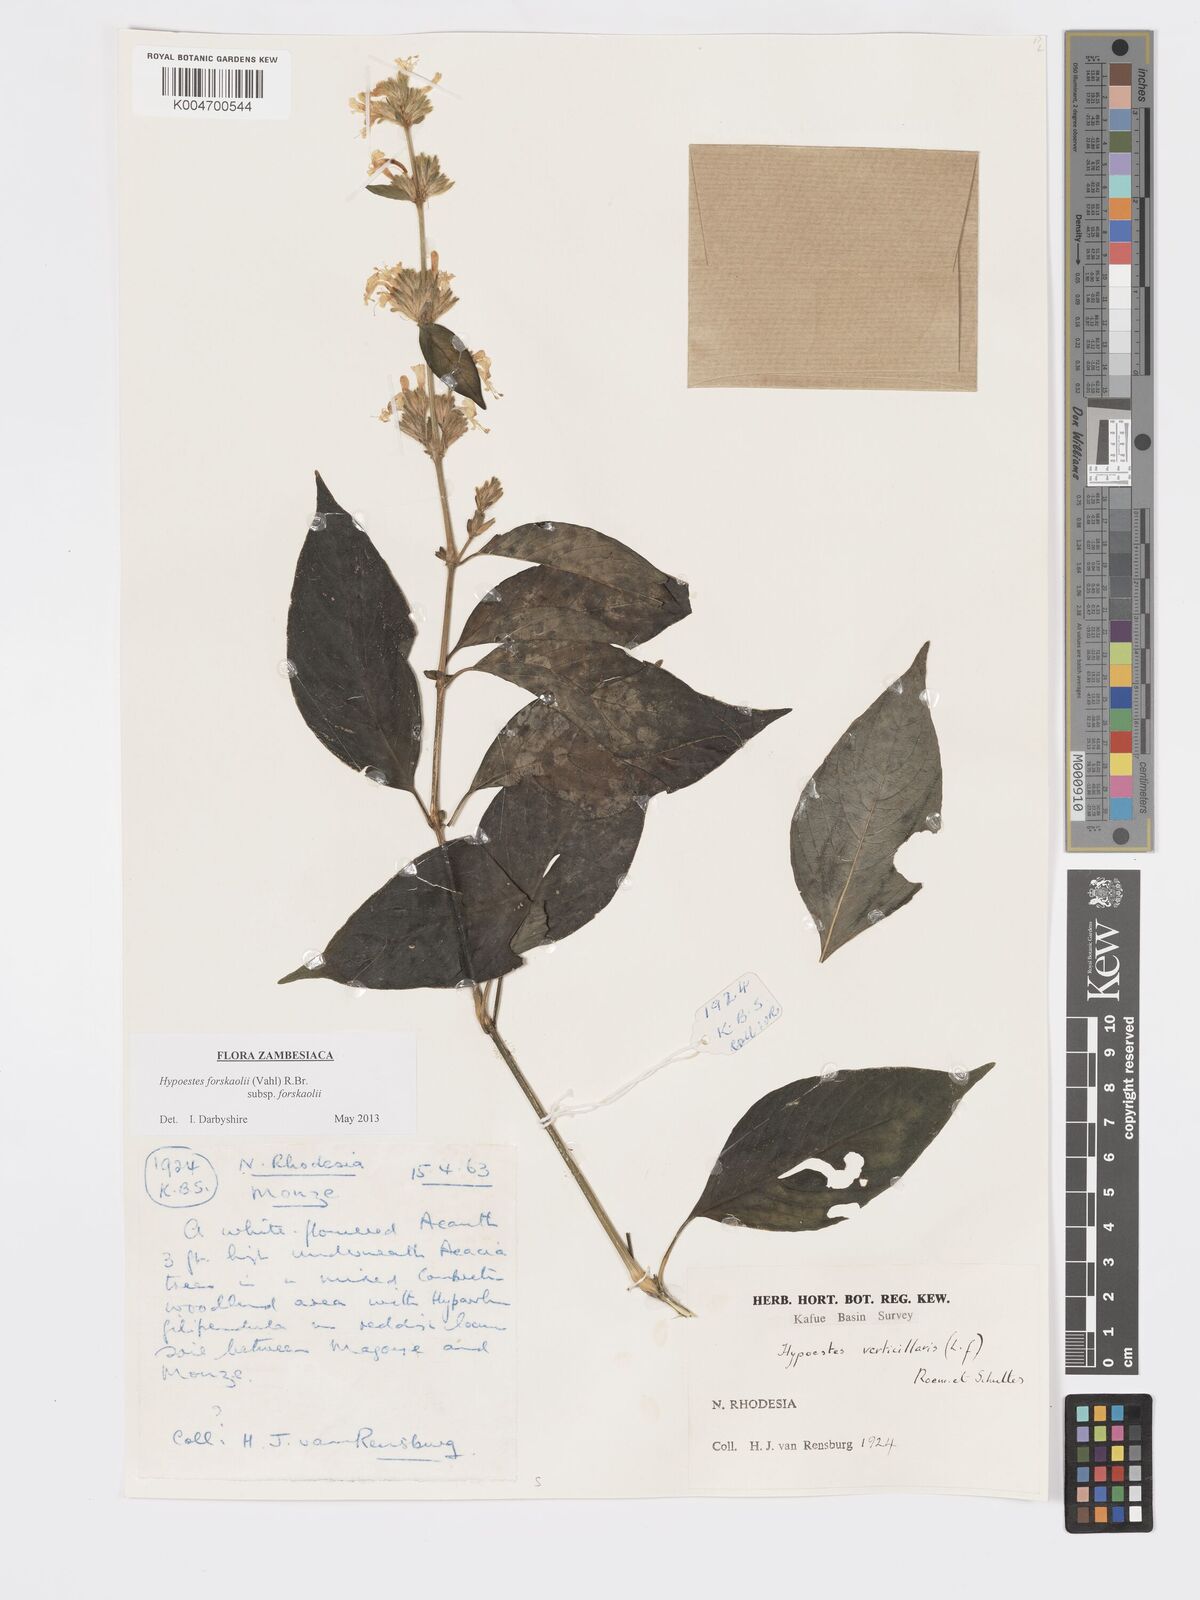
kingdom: Plantae
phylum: Tracheophyta
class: Magnoliopsida
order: Lamiales
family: Acanthaceae
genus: Hypoestes
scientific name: Hypoestes forskaolii
